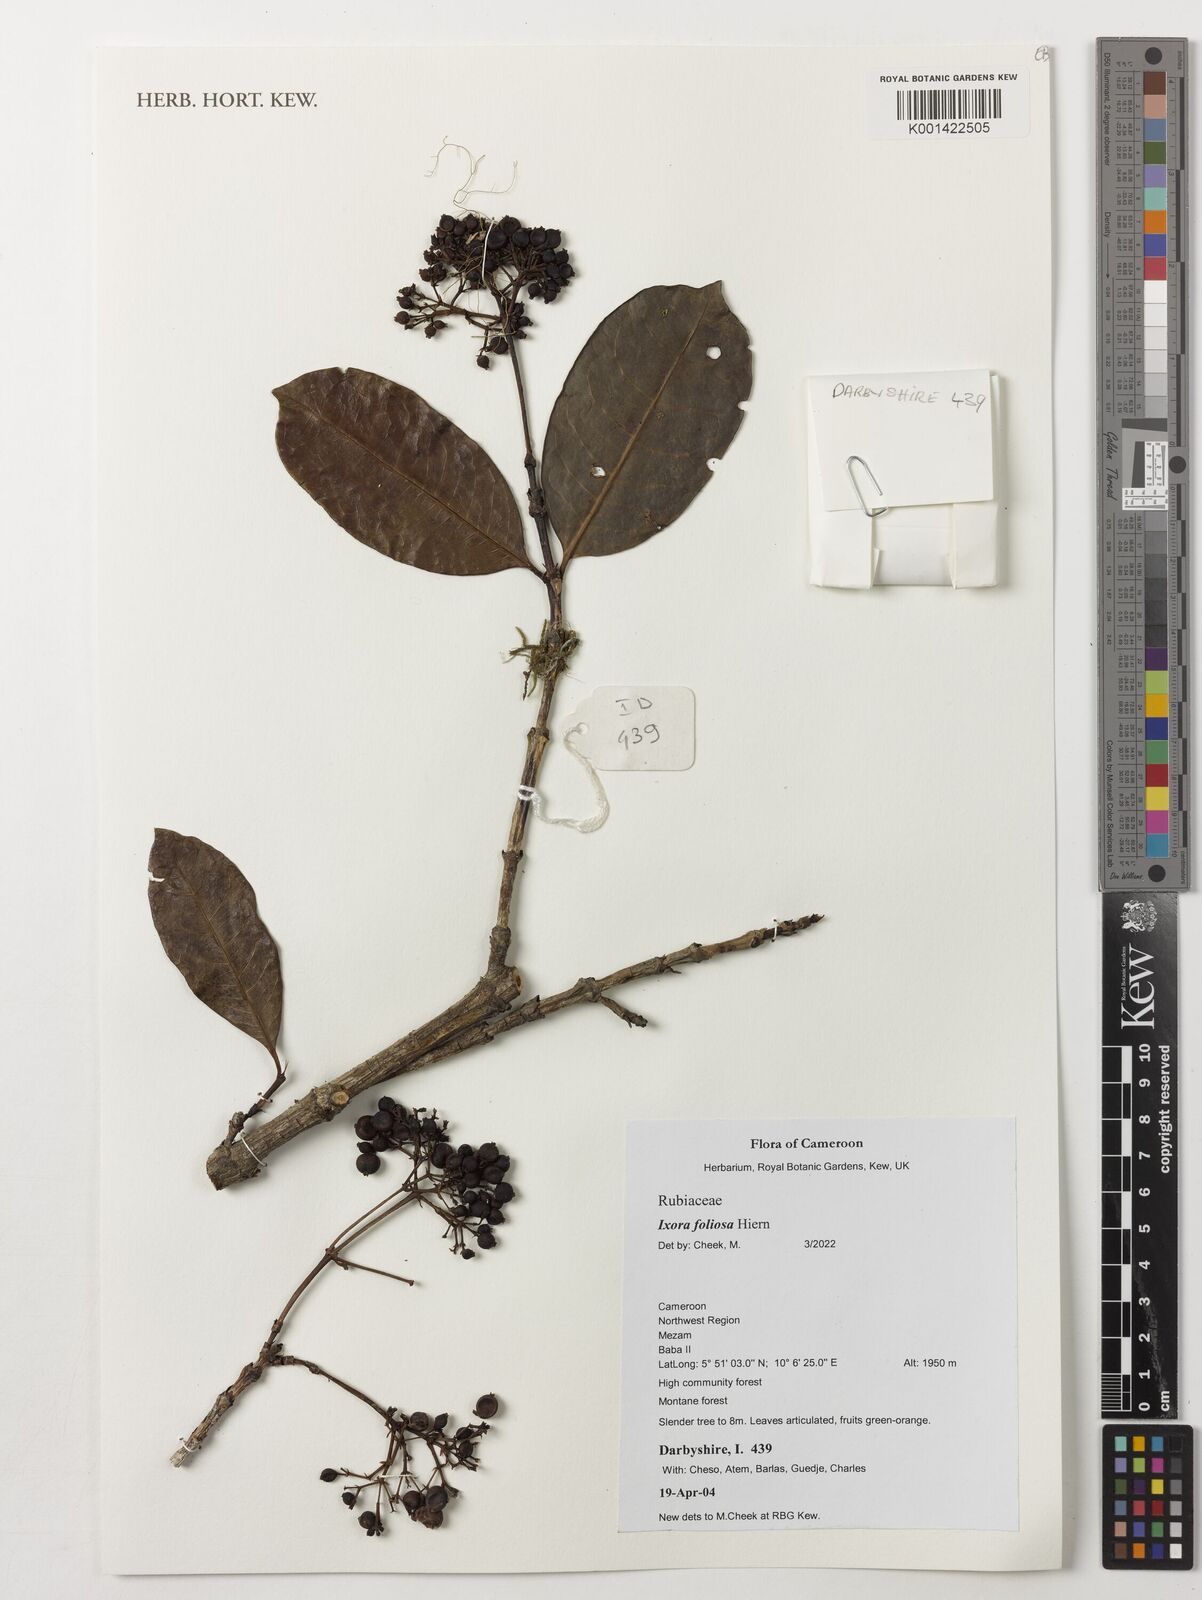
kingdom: Plantae
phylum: Tracheophyta
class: Magnoliopsida
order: Gentianales
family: Rubiaceae
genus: Ixora
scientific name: Ixora foliosa
